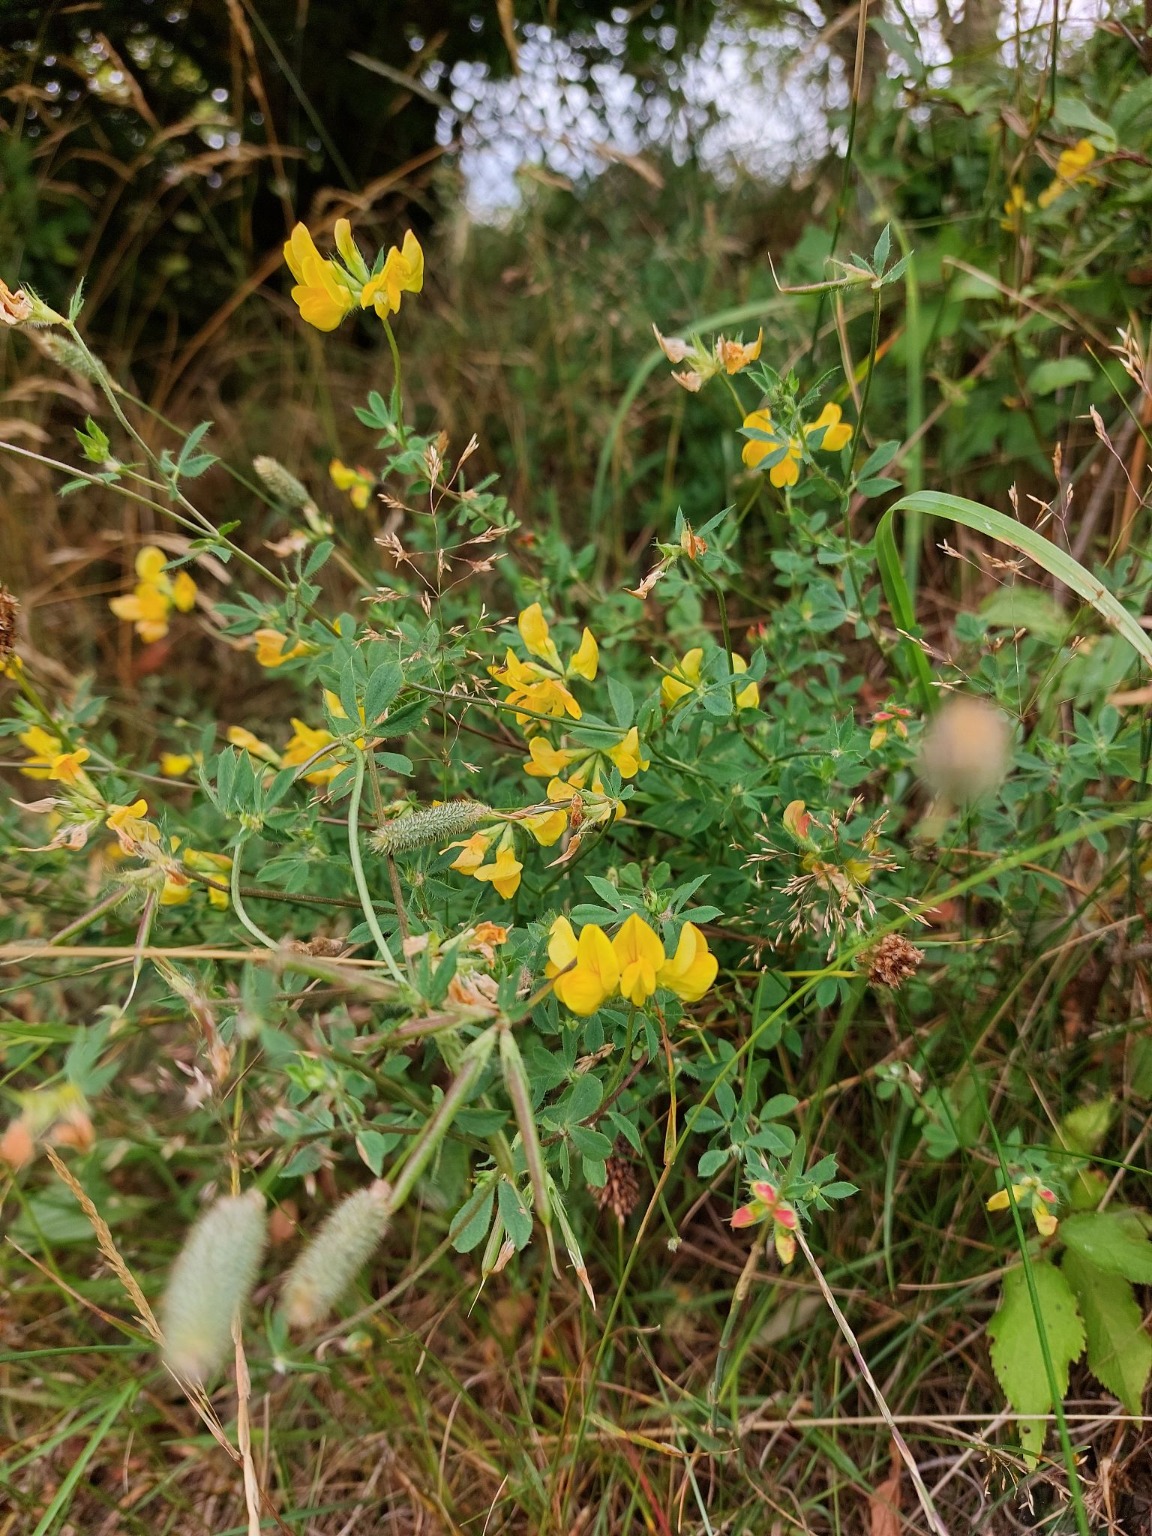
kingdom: Plantae
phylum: Tracheophyta
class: Magnoliopsida
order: Fabales
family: Fabaceae
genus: Lotus
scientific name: Lotus corniculatus
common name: Almindelig kællingetand
